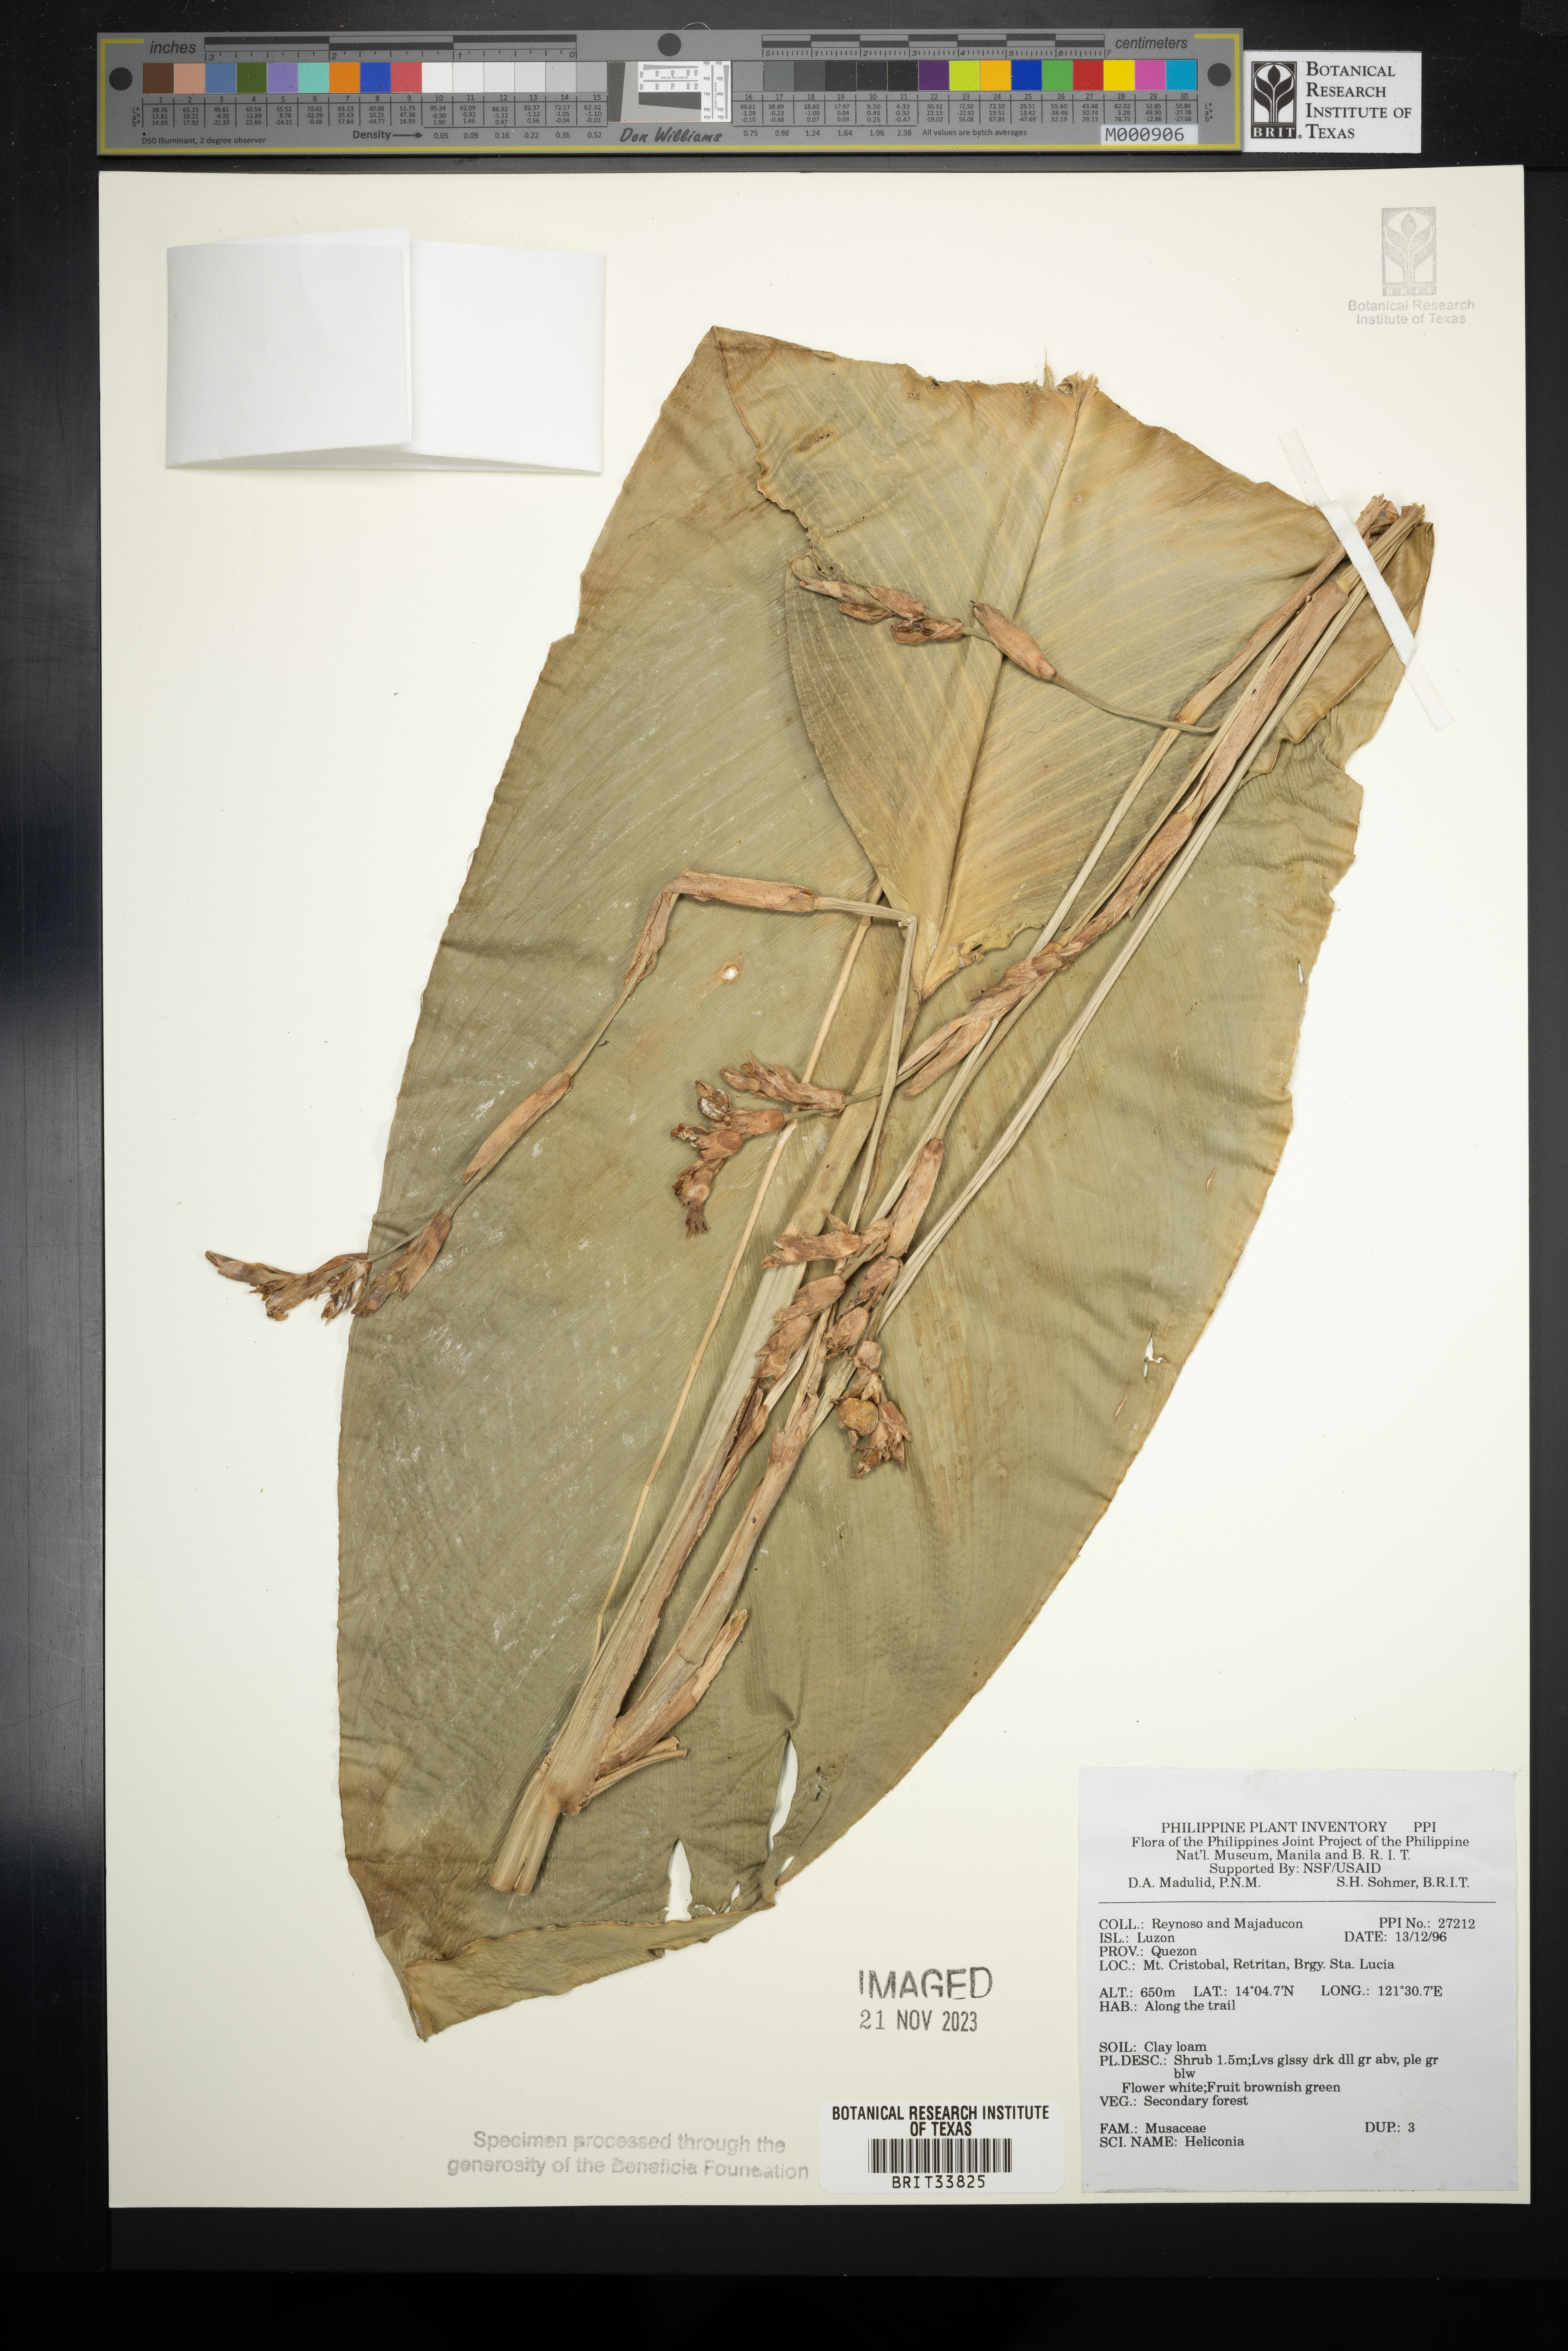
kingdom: Plantae
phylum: Tracheophyta
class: Liliopsida
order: Zingiberales
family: Heliconiaceae
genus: Heliconia
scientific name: Heliconia
